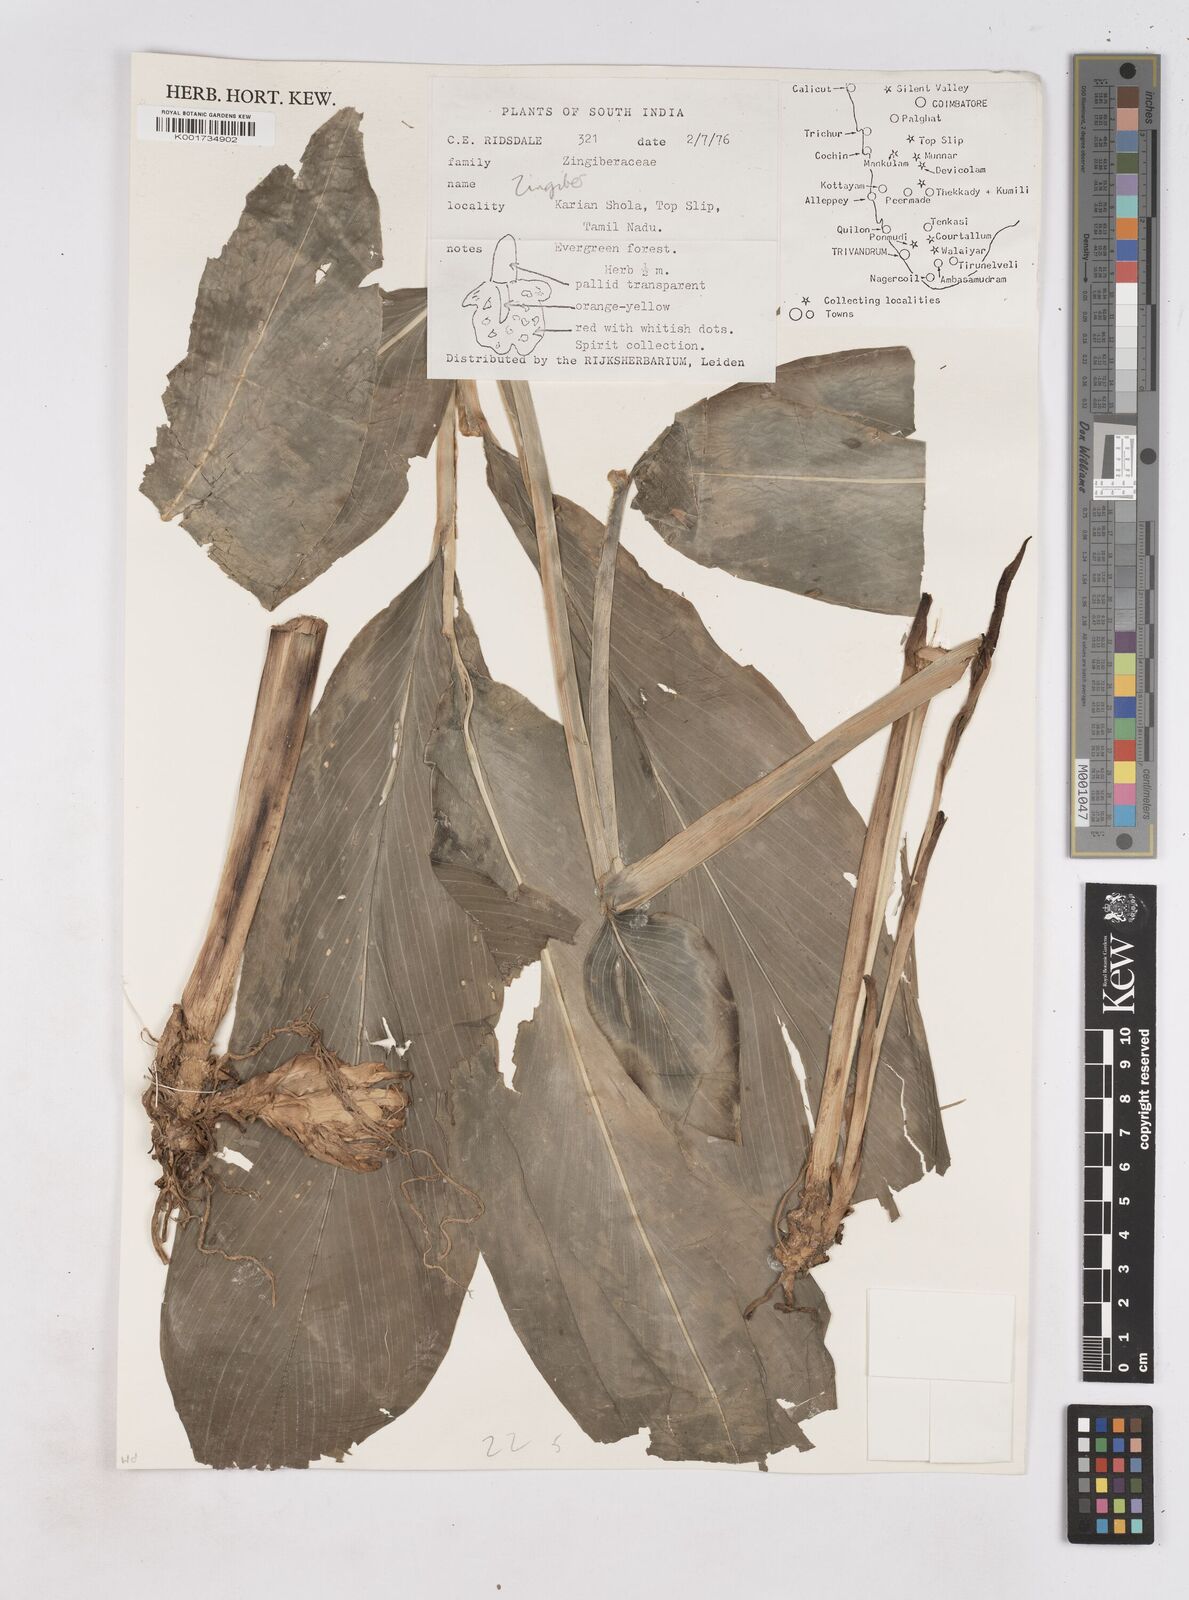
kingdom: Plantae
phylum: Tracheophyta
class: Liliopsida
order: Zingiberales
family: Zingiberaceae
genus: Zingiber
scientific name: Zingiber
